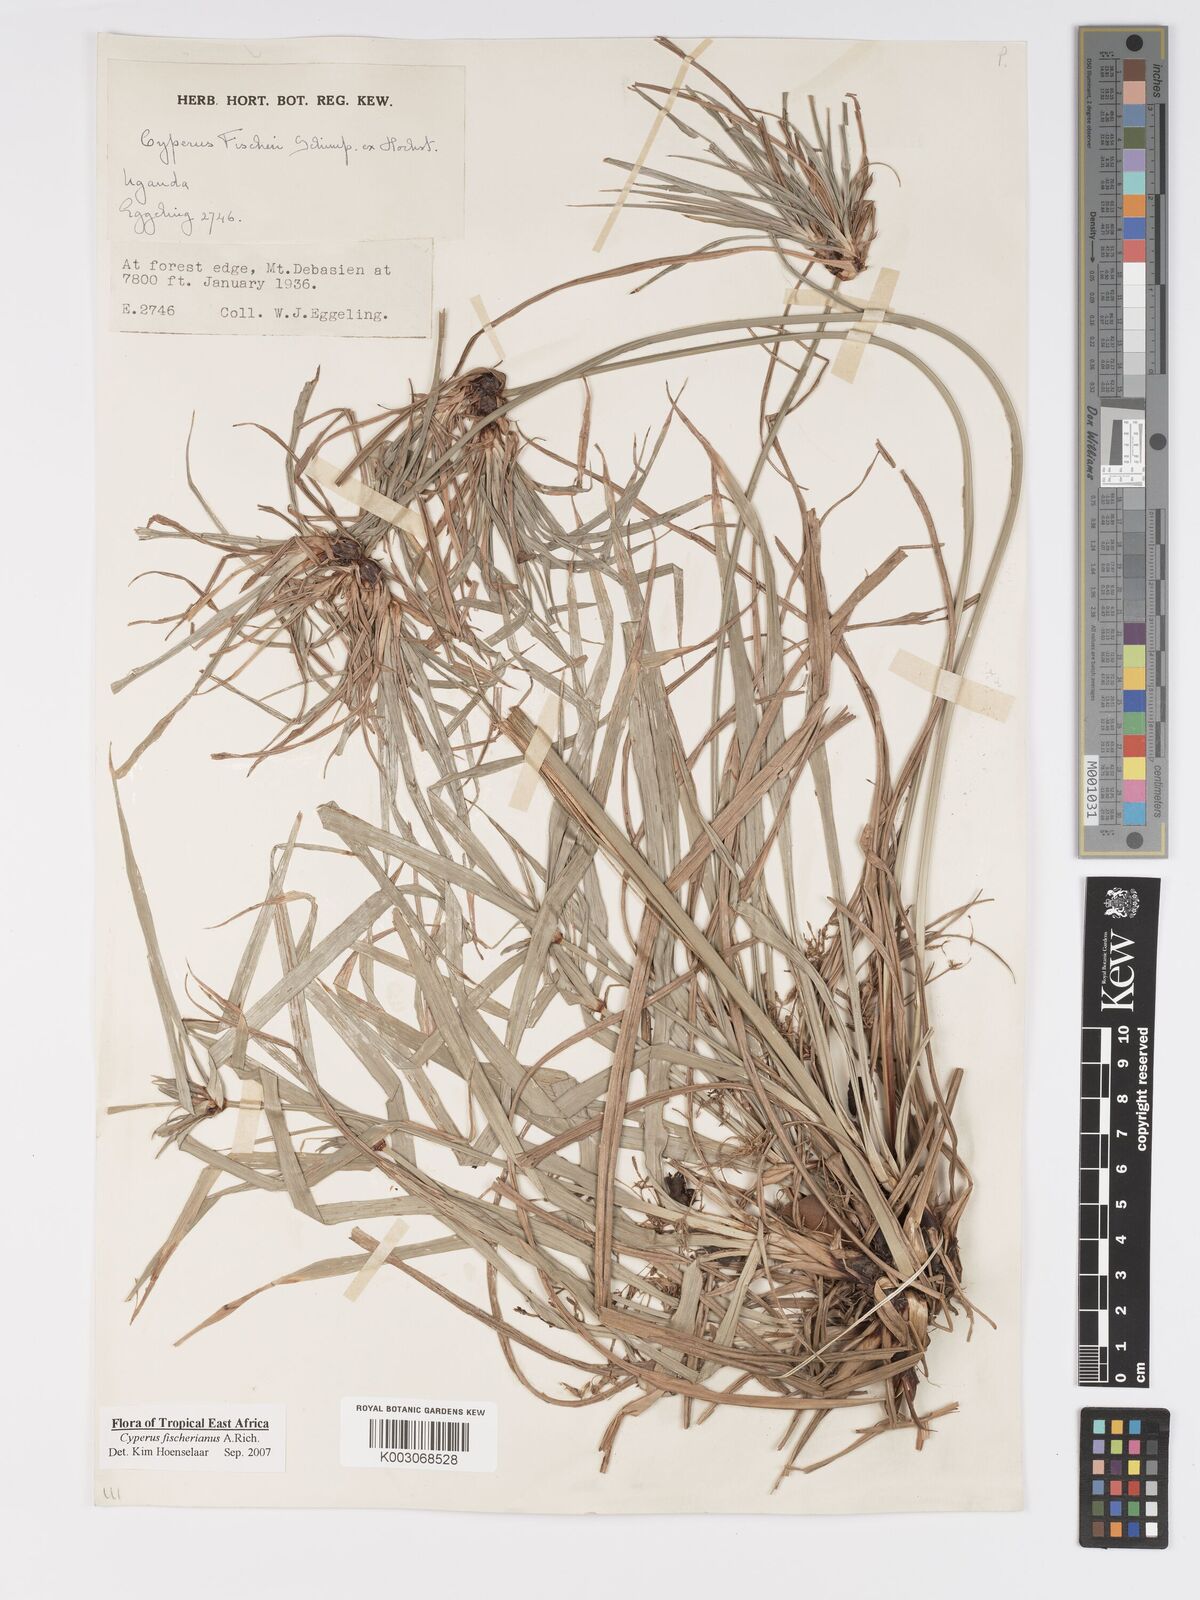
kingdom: Plantae
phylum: Tracheophyta
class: Liliopsida
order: Poales
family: Cyperaceae
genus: Cyperus
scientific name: Cyperus fischerianus
